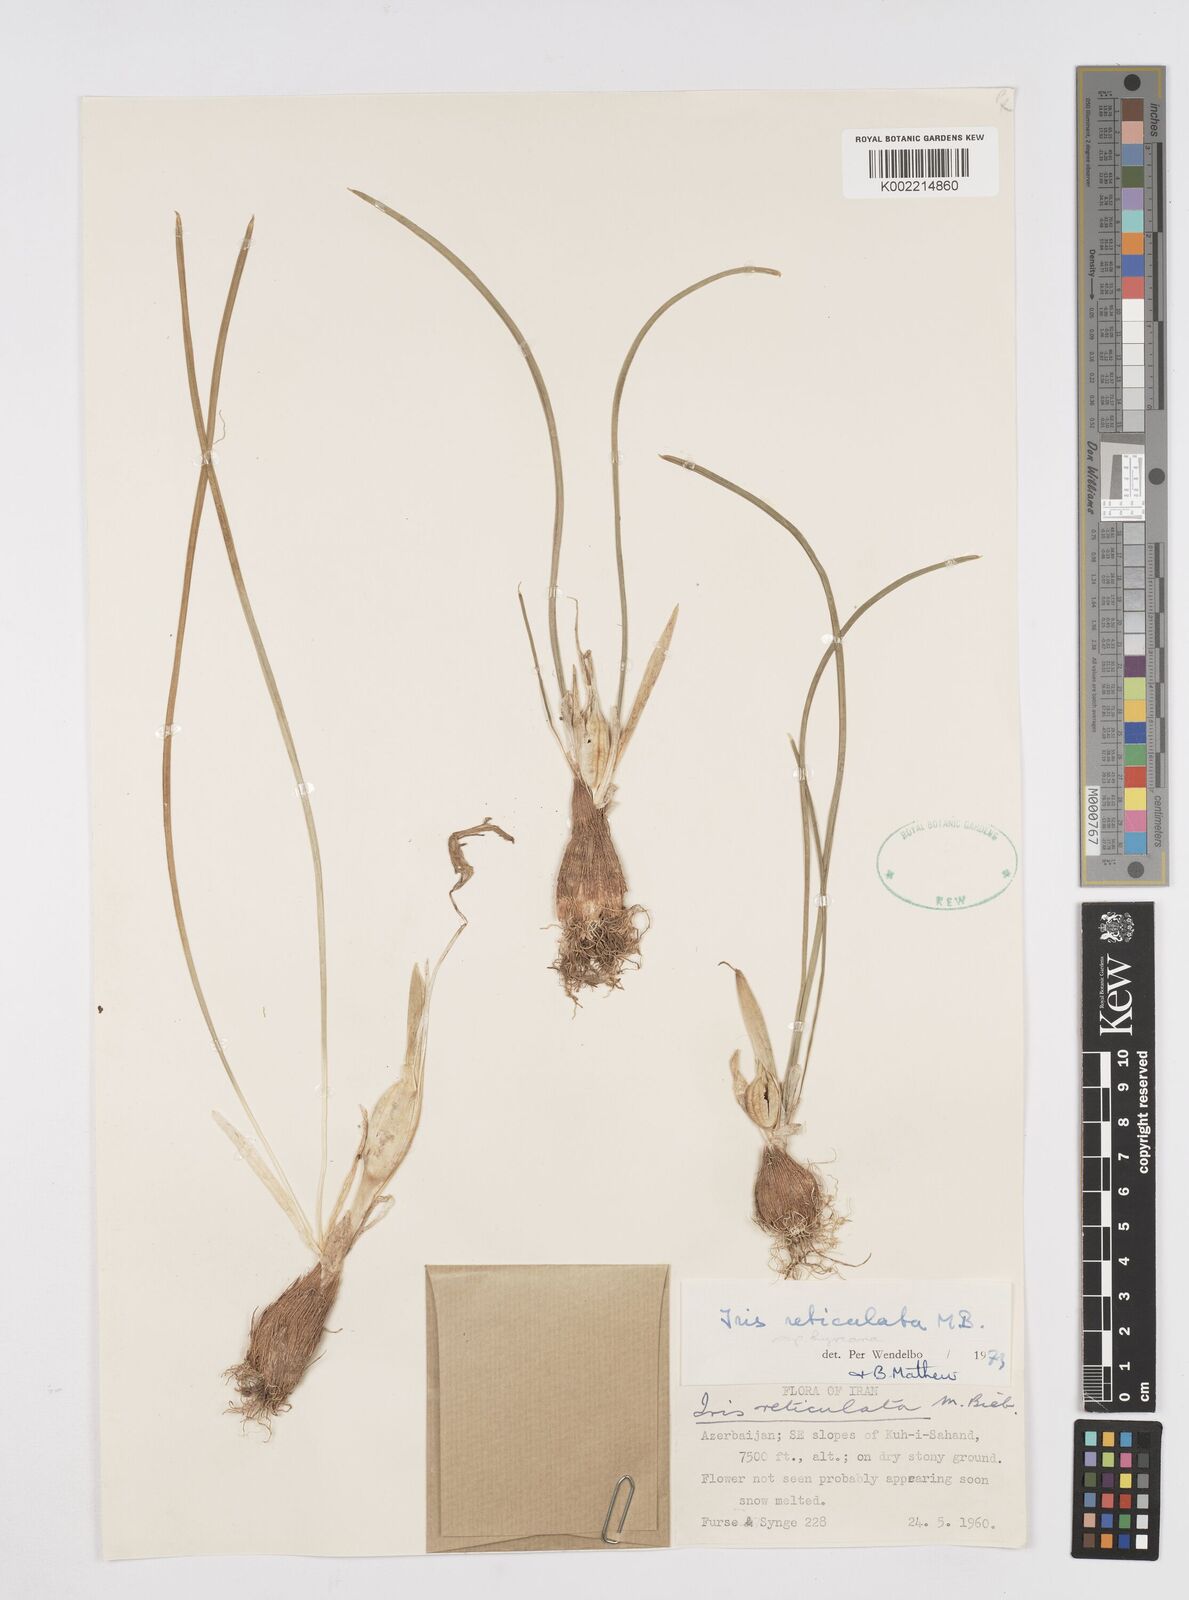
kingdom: Plantae
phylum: Tracheophyta
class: Liliopsida
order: Asparagales
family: Iridaceae
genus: Iris
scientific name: Iris reticulata
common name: Netted iris
